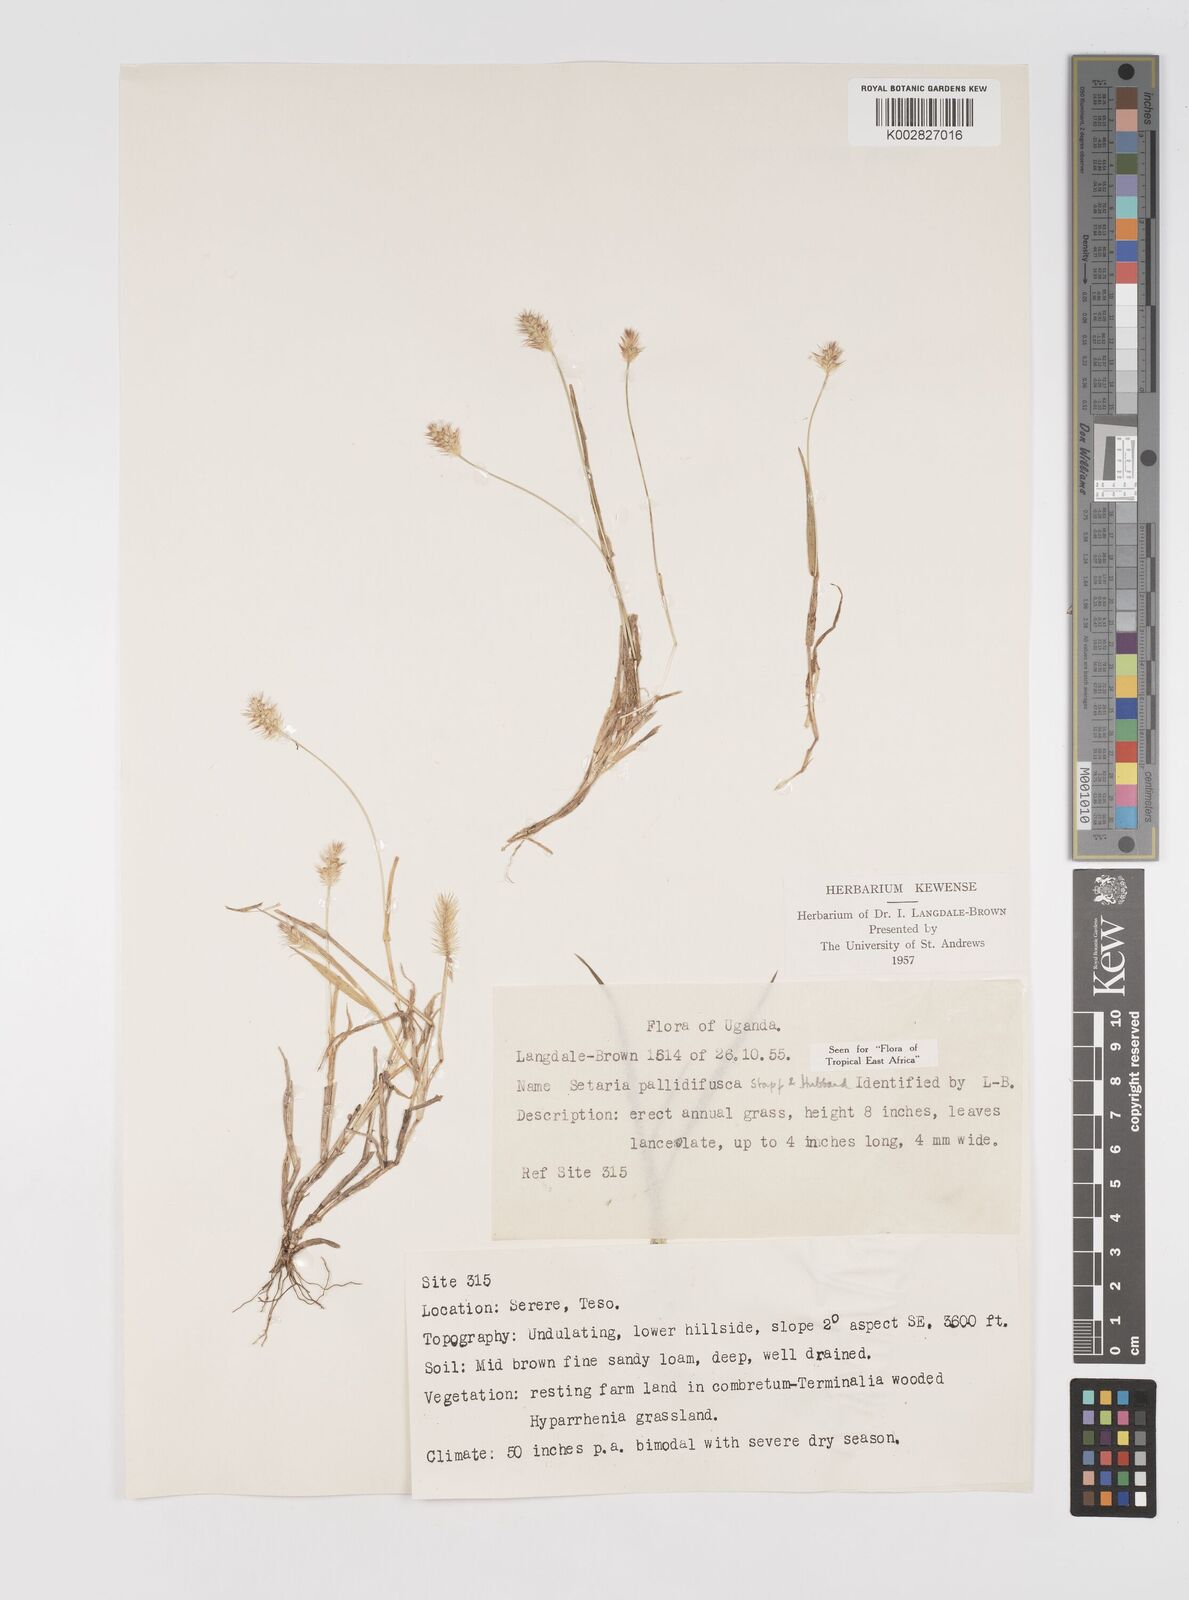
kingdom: Plantae
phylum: Tracheophyta
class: Liliopsida
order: Poales
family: Poaceae
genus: Setaria
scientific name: Setaria pumila
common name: Yellow bristle-grass
